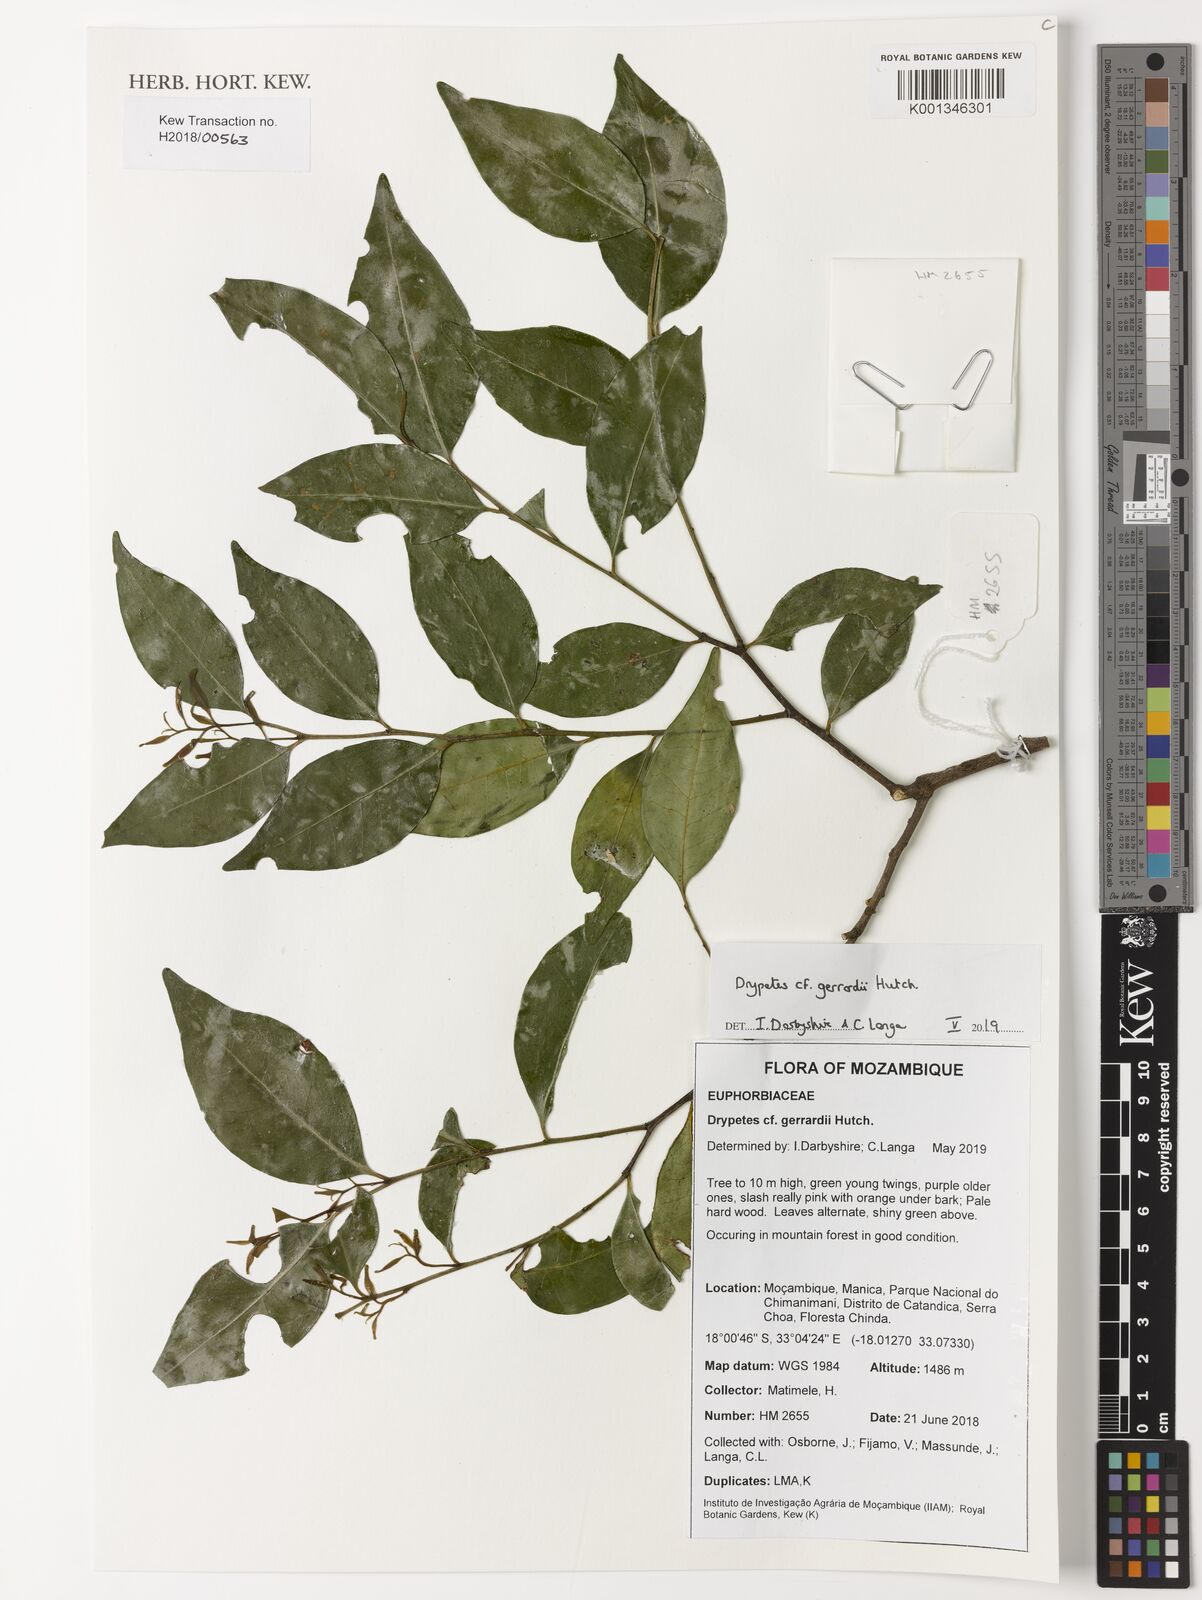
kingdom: Plantae
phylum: Tracheophyta
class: Magnoliopsida
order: Malpighiales
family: Putranjivaceae
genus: Drypetes
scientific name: Drypetes gerrardii
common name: Forest ironplum
